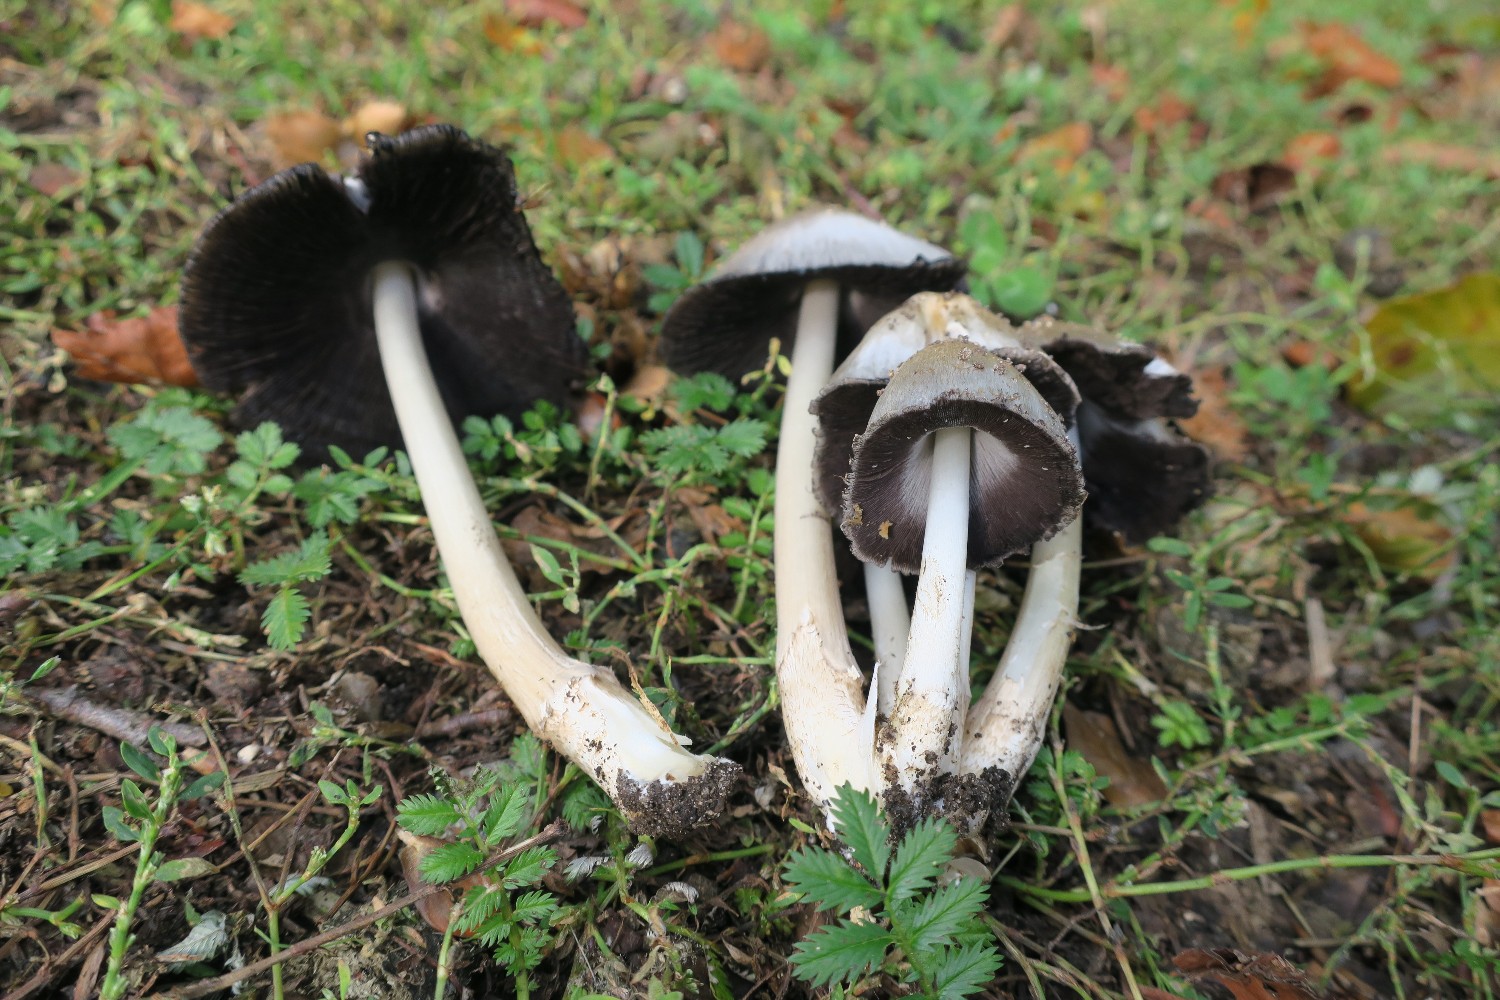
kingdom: Fungi
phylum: Basidiomycota
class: Agaricomycetes
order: Agaricales
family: Psathyrellaceae
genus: Coprinopsis
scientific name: Coprinopsis atramentaria
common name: almindelig blækhat
